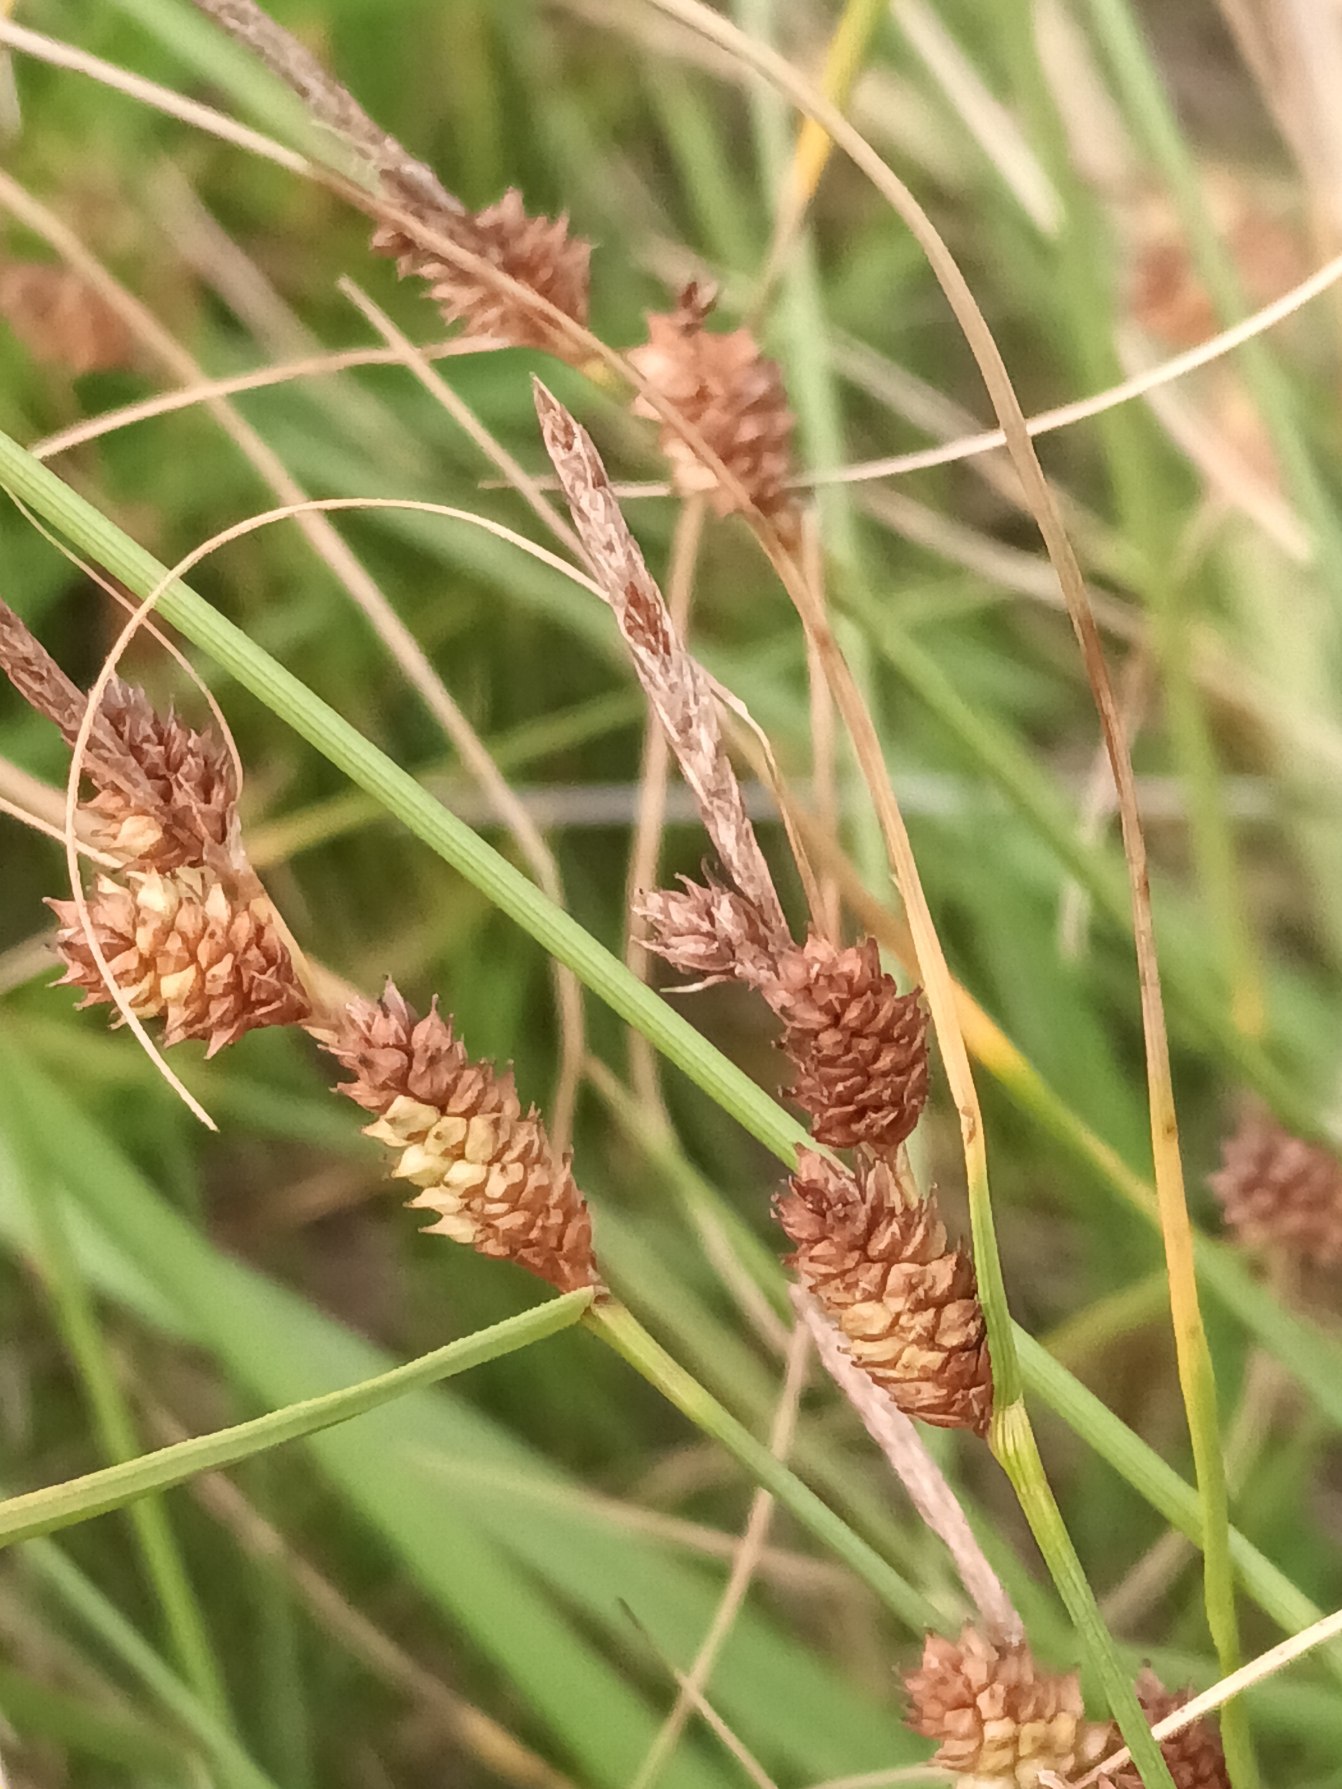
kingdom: Plantae
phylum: Tracheophyta
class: Liliopsida
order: Poales
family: Cyperaceae
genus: Carex
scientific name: Carex extensa
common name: Udspilet star
